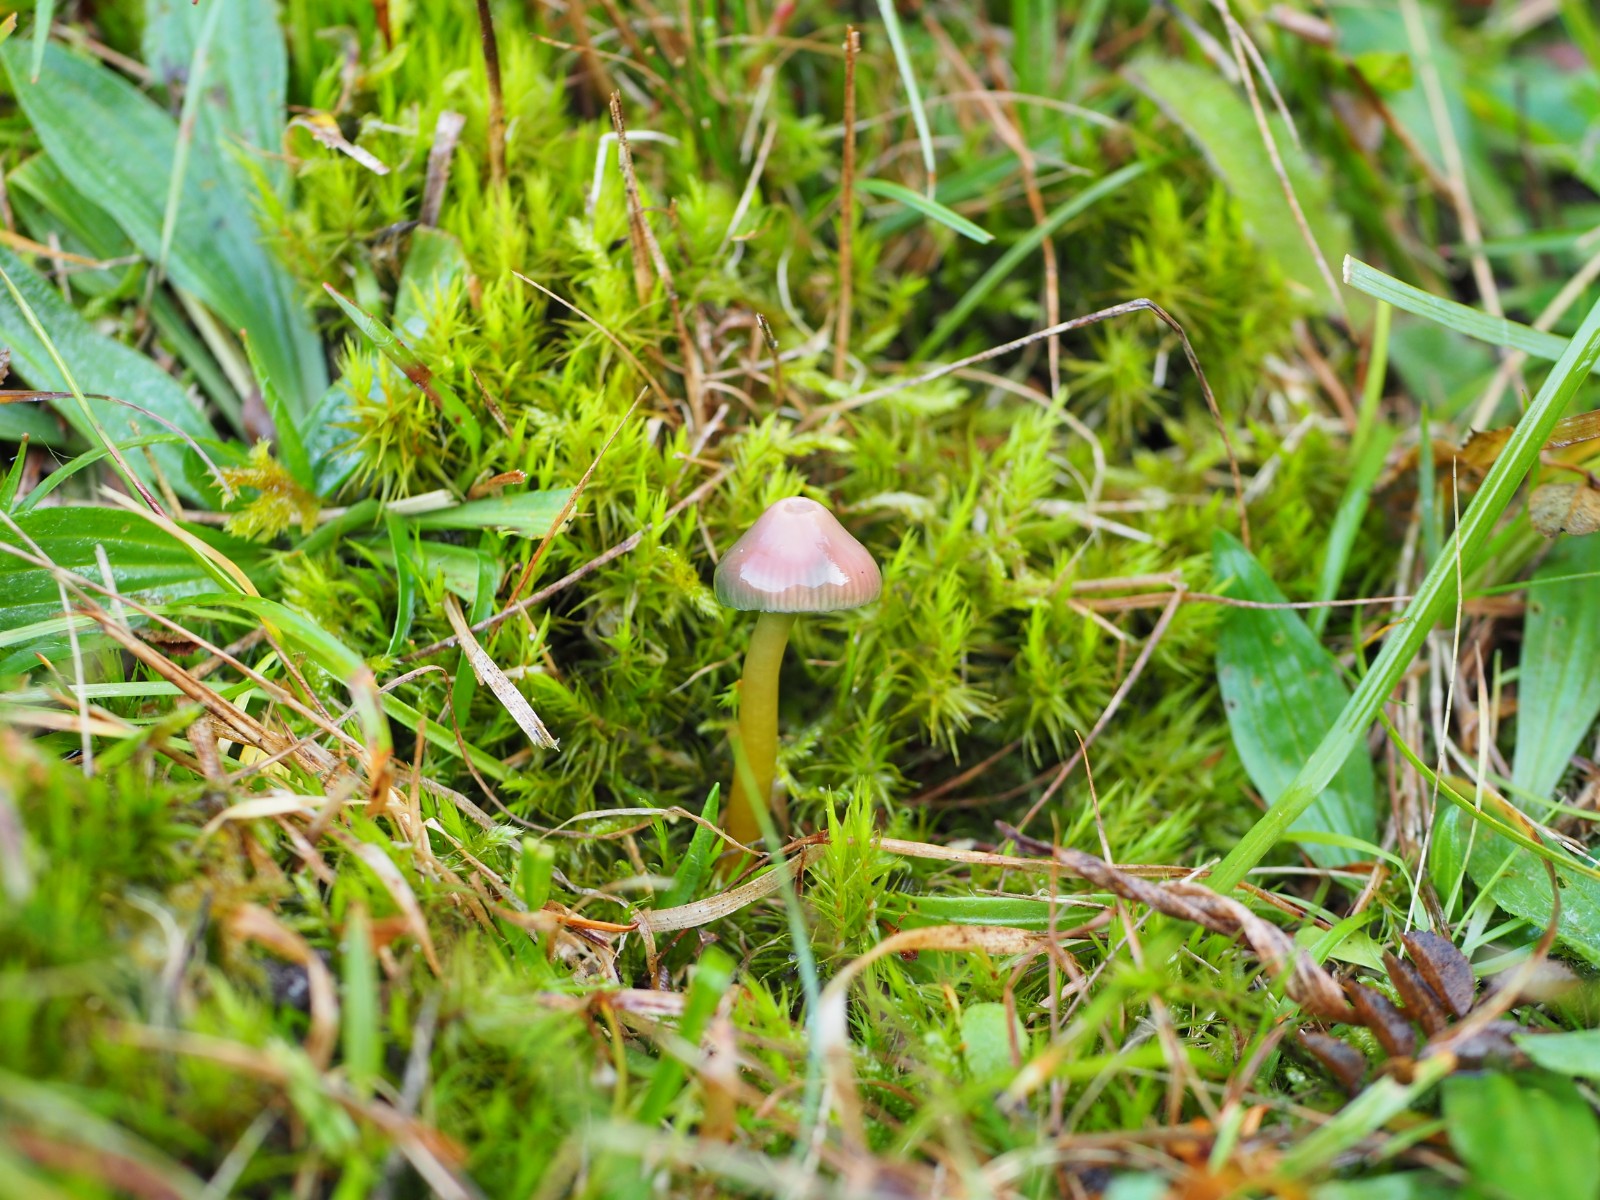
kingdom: Fungi
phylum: Basidiomycota
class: Agaricomycetes
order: Agaricales
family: Hygrophoraceae
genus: Gliophorus
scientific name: Gliophorus psittacinus
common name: papegøje-vokshat
